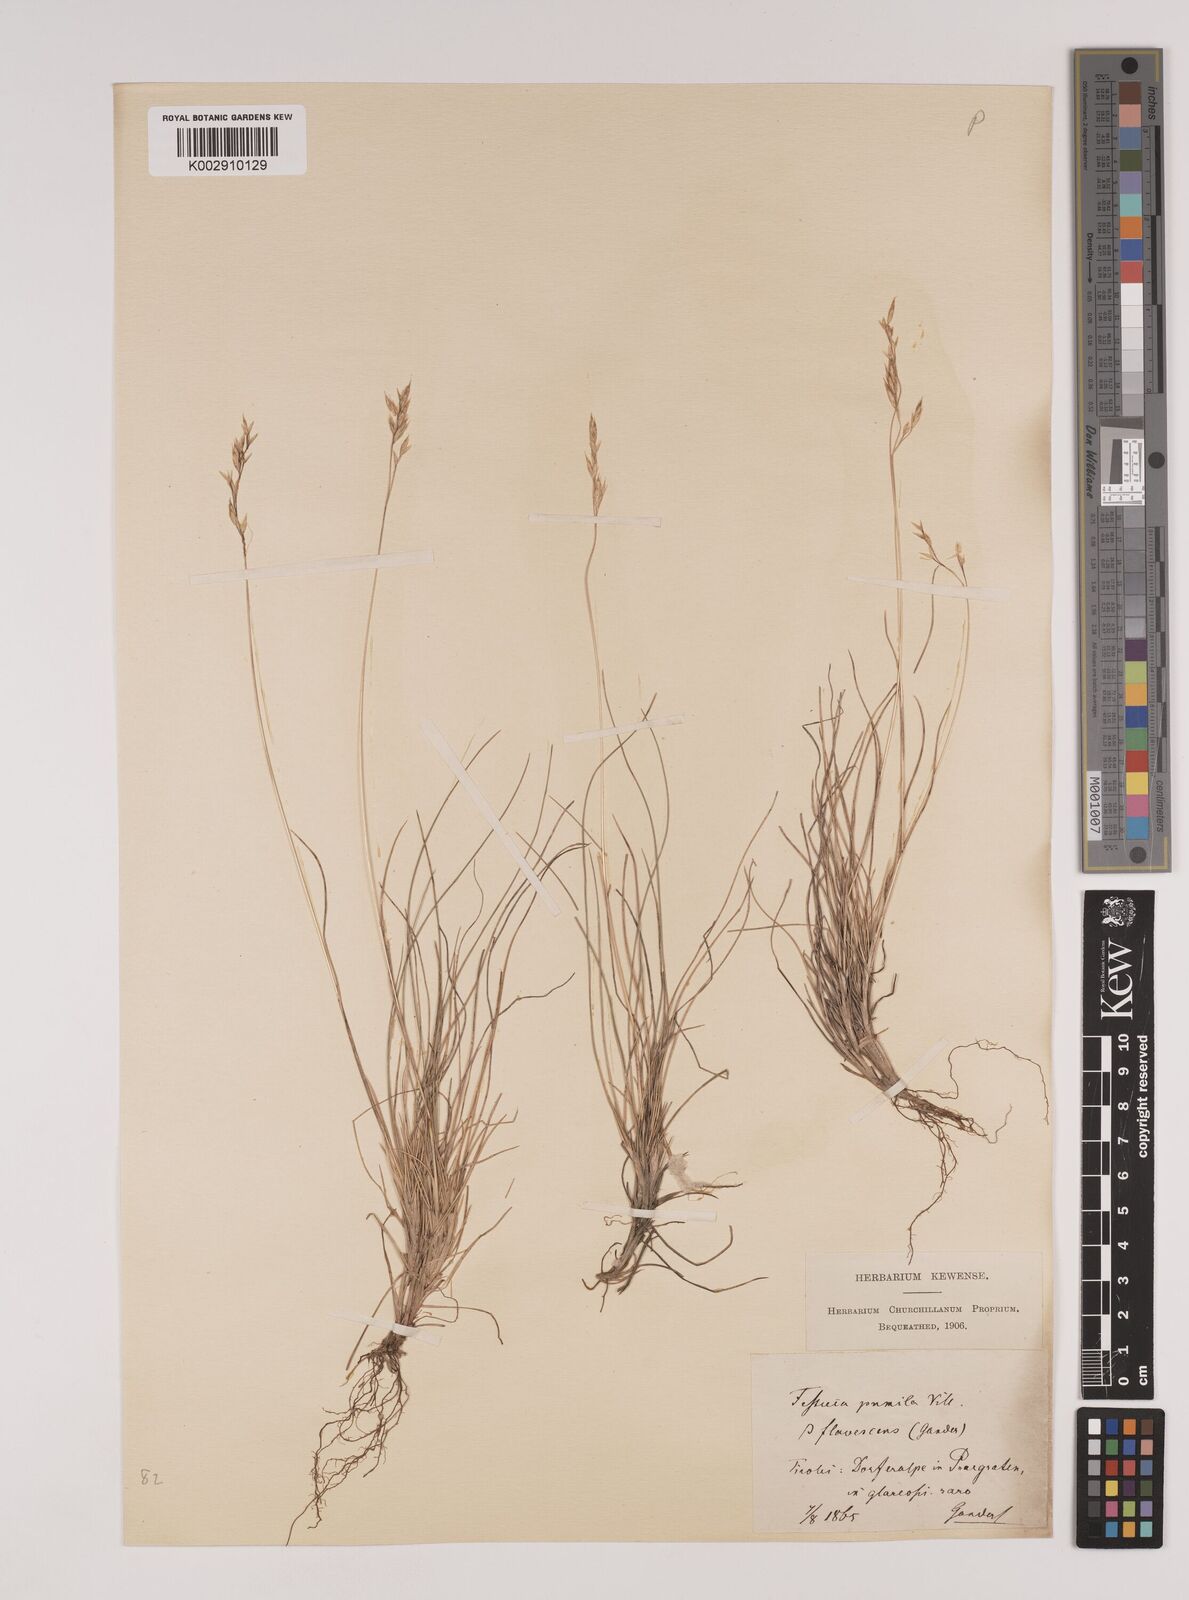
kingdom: Plantae
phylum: Tracheophyta
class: Liliopsida
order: Poales
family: Poaceae
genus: Festuca
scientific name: Festuca
